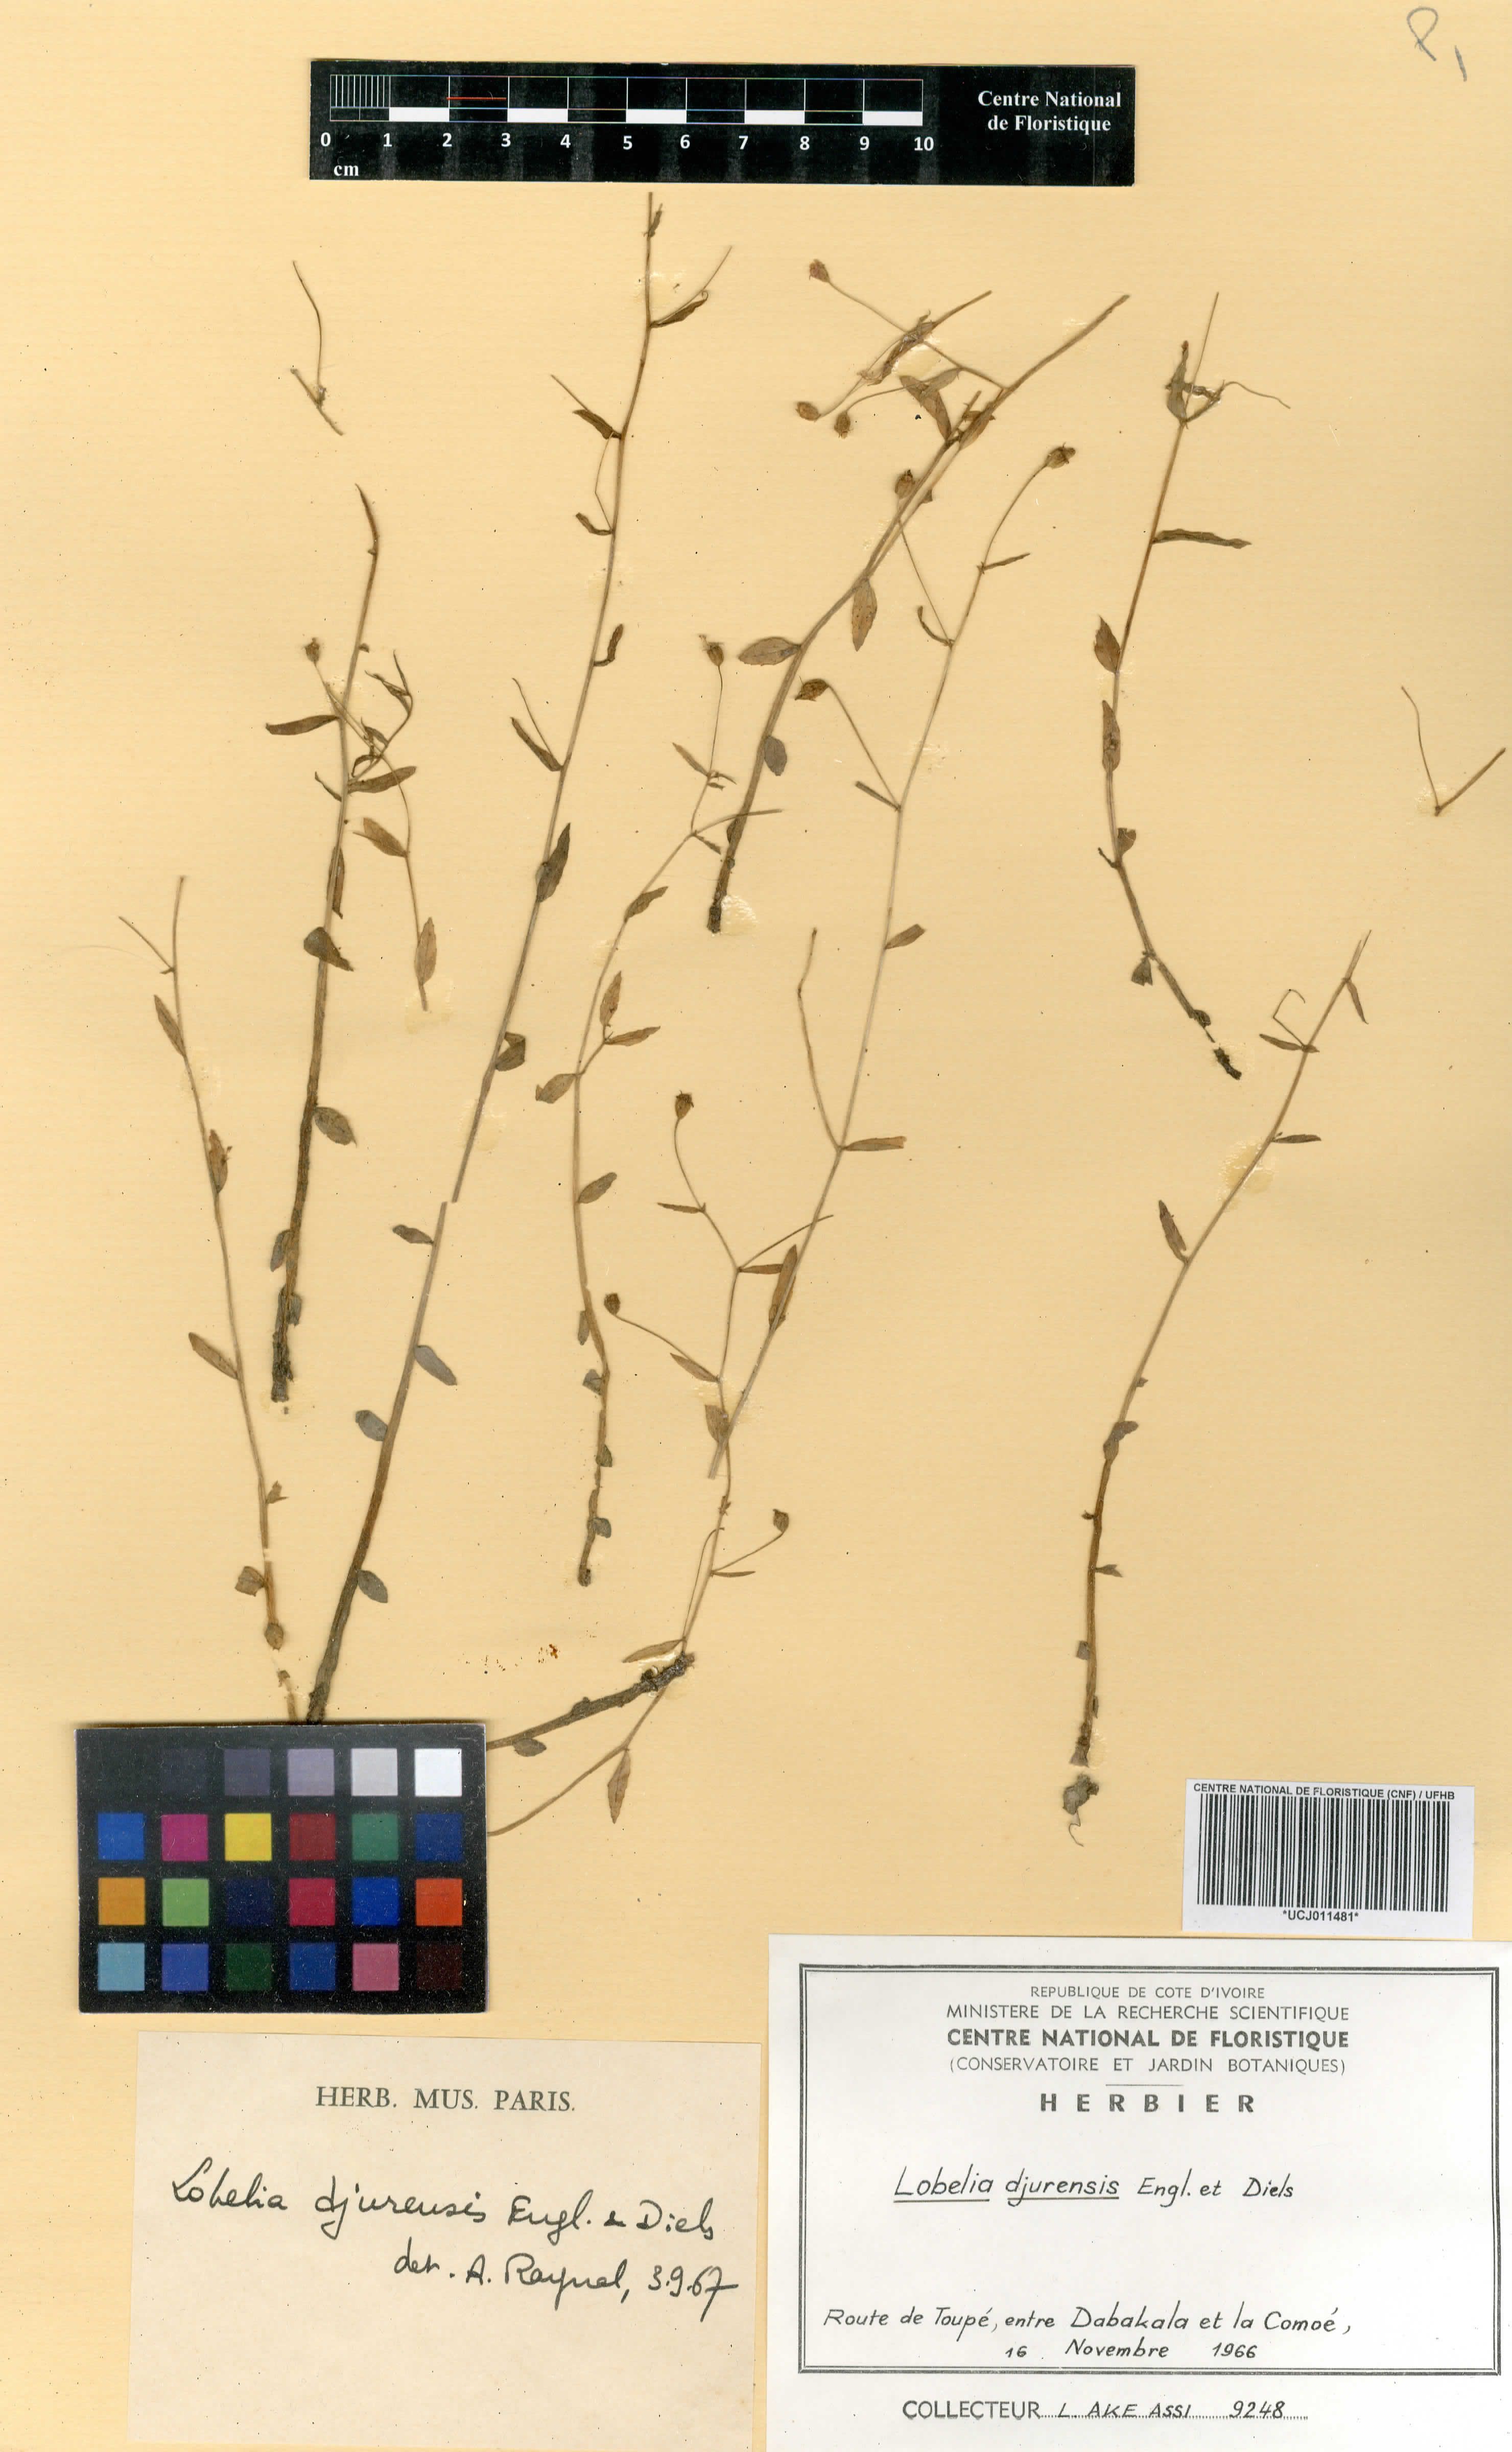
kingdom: Plantae
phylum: Tracheophyta
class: Magnoliopsida
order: Asterales
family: Campanulaceae
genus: Lobelia
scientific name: Lobelia djurensis
